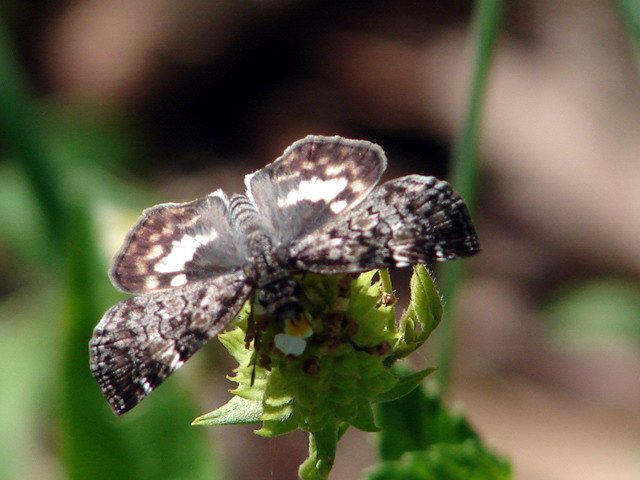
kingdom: Animalia
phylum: Arthropoda
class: Insecta
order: Lepidoptera
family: Hesperiidae
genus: Chiomara
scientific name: Chiomara asychis
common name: White-patched Skipper
